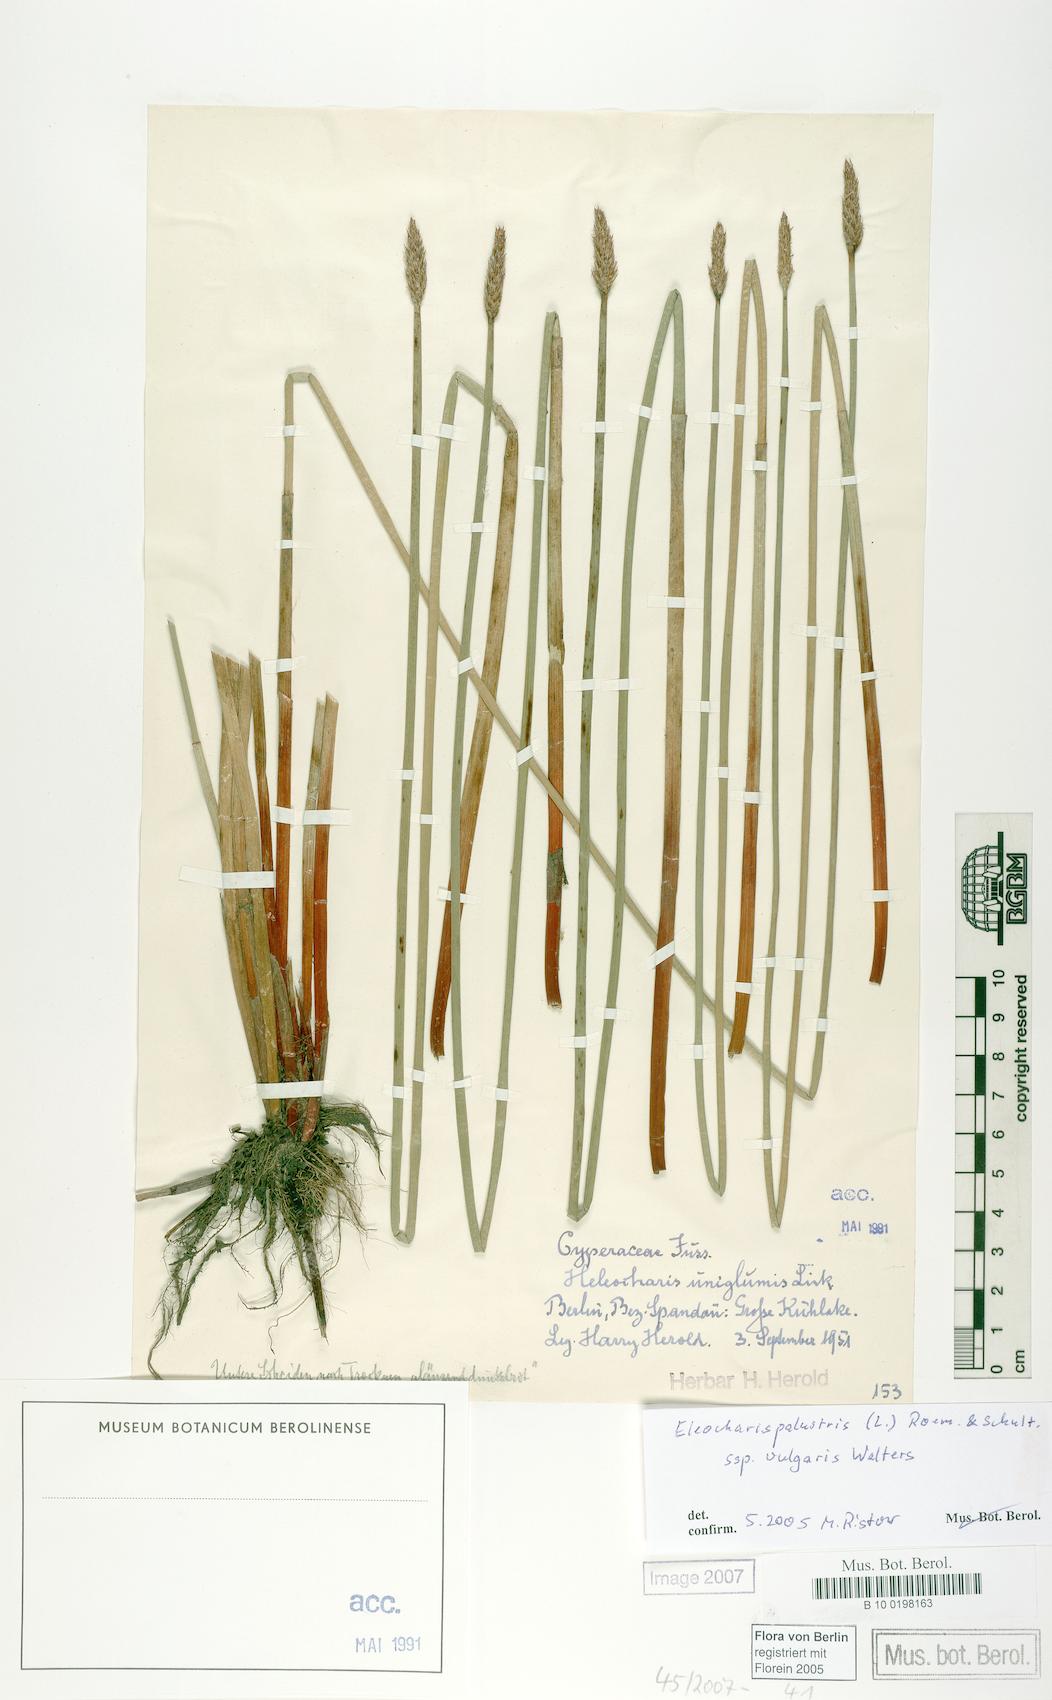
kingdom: Plantae
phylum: Tracheophyta
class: Liliopsida
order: Poales
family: Cyperaceae
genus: Eleocharis
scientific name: Eleocharis palustris
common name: Common spike-rush
